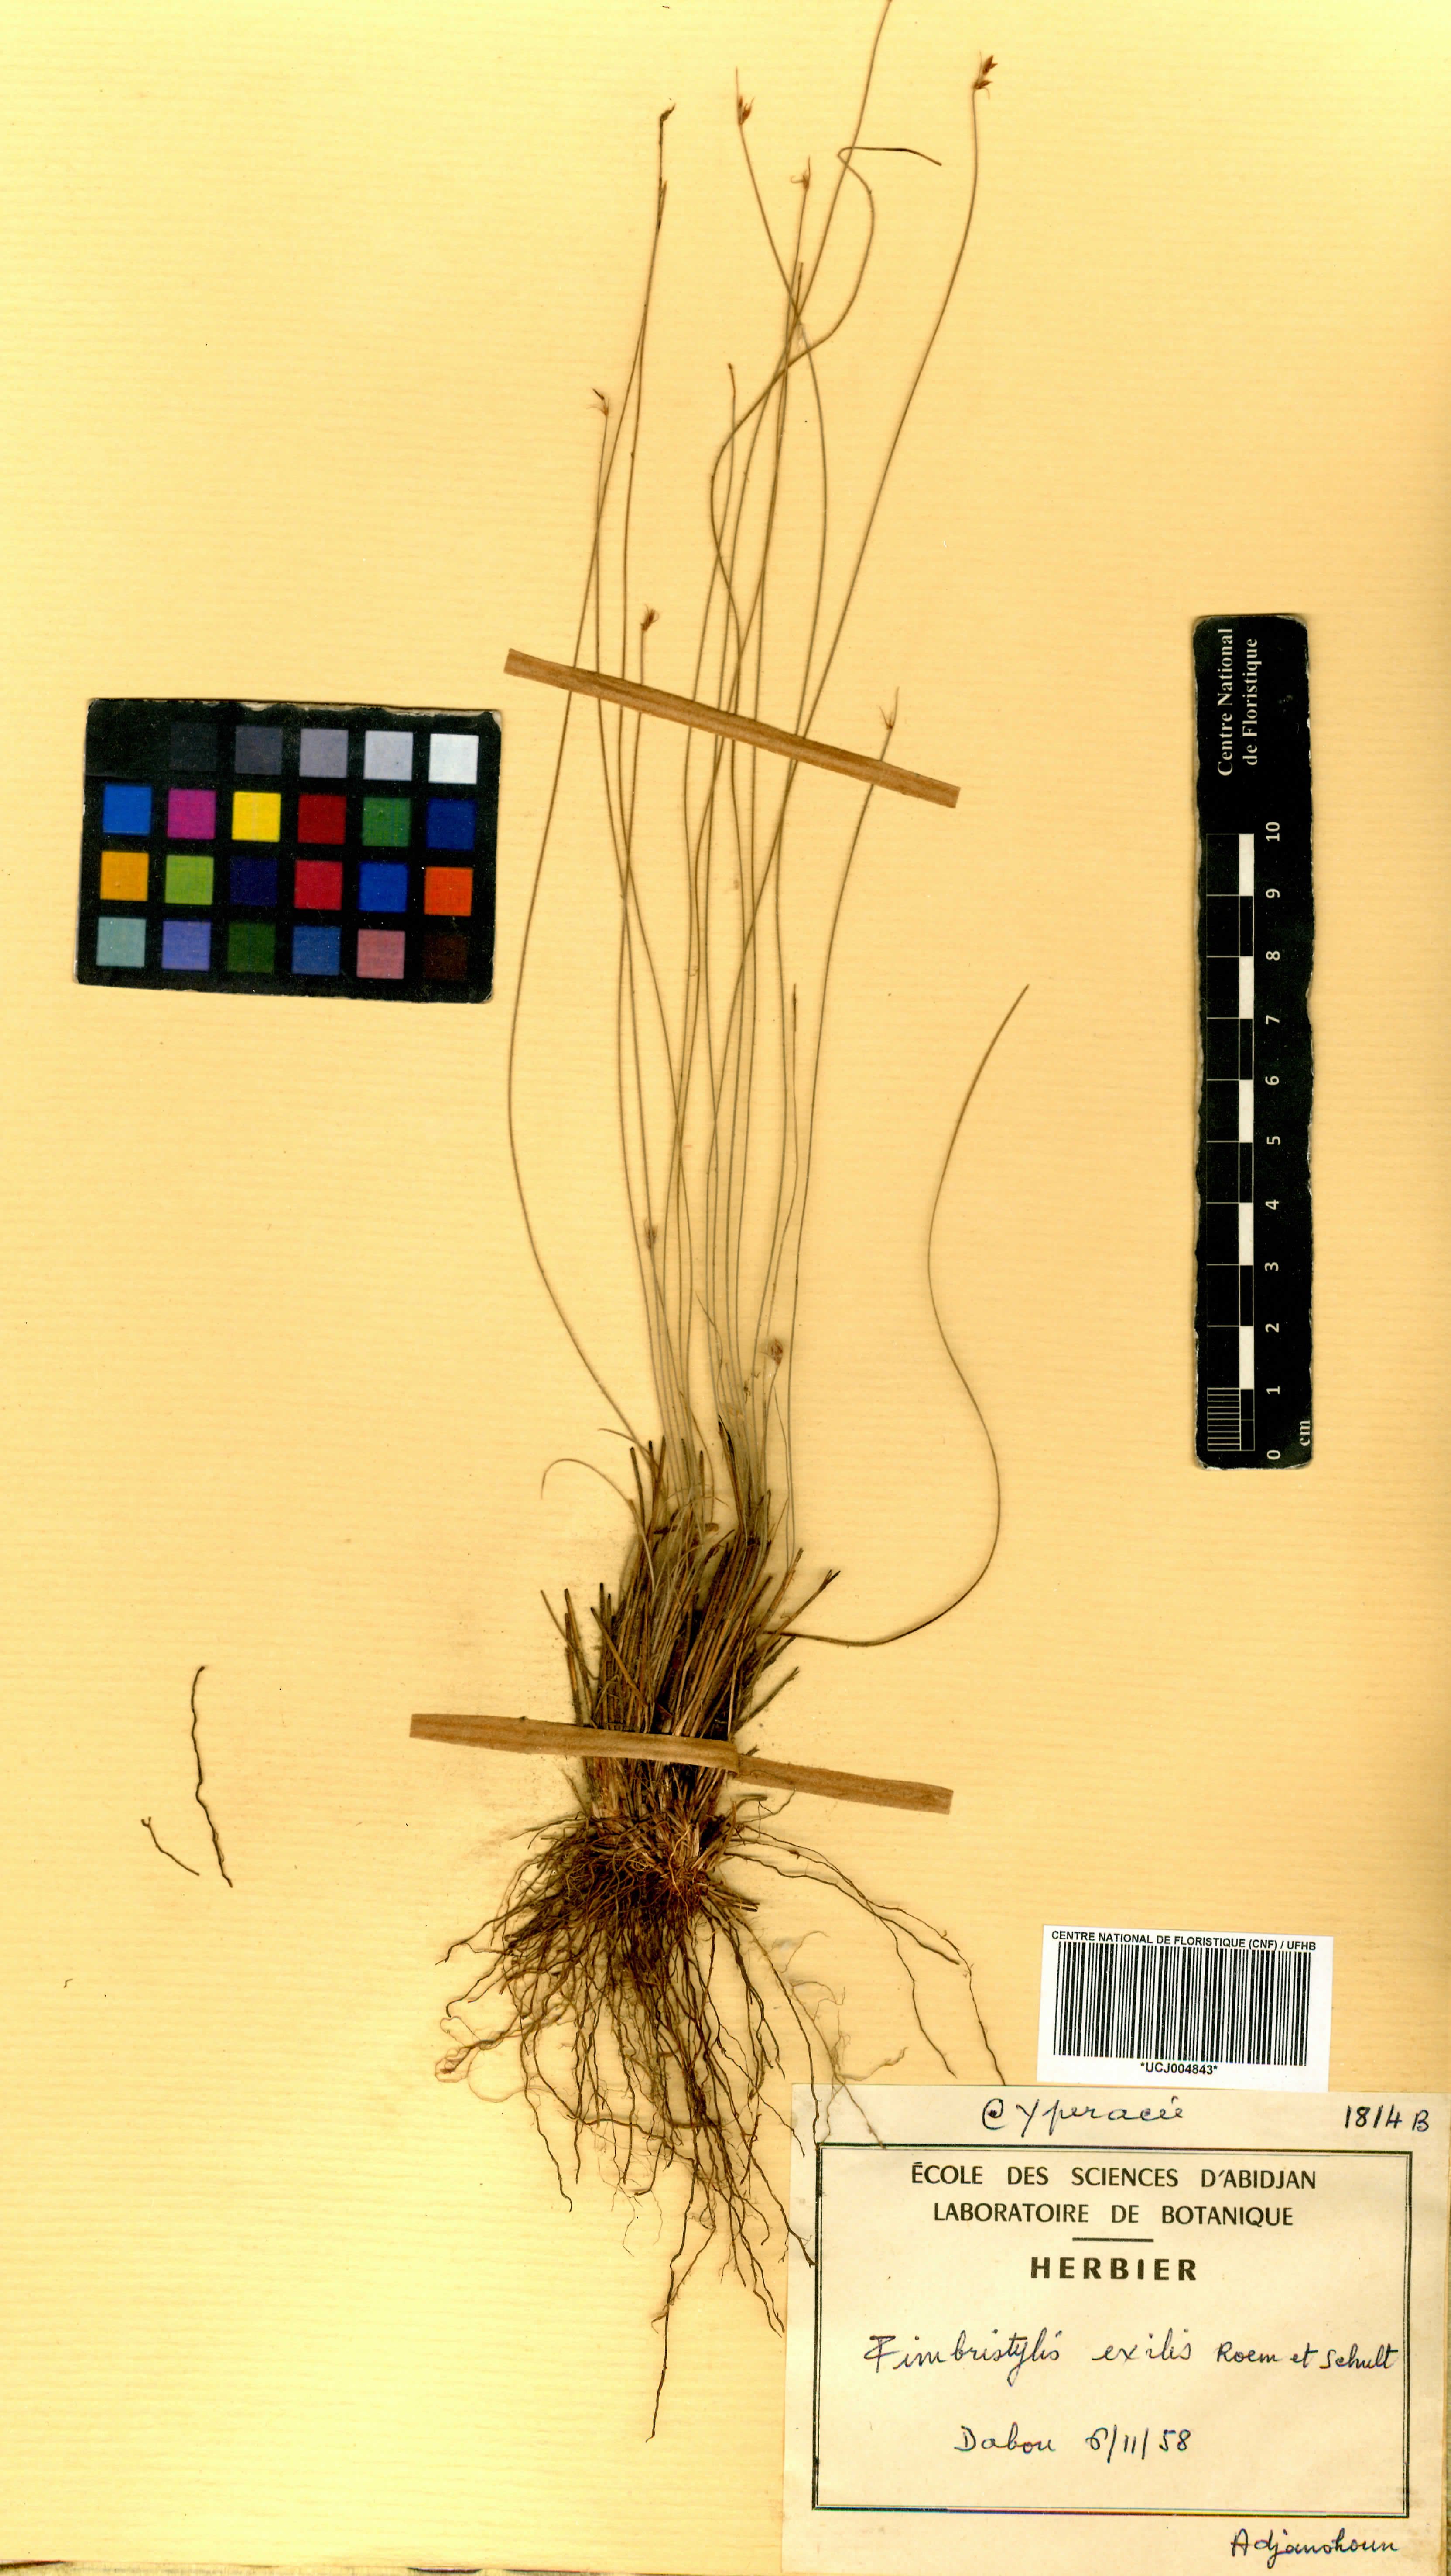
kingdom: Plantae
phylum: Tracheophyta
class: Liliopsida
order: Poales
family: Cyperaceae
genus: Bulbostylis
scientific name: Bulbostylis hispidula
